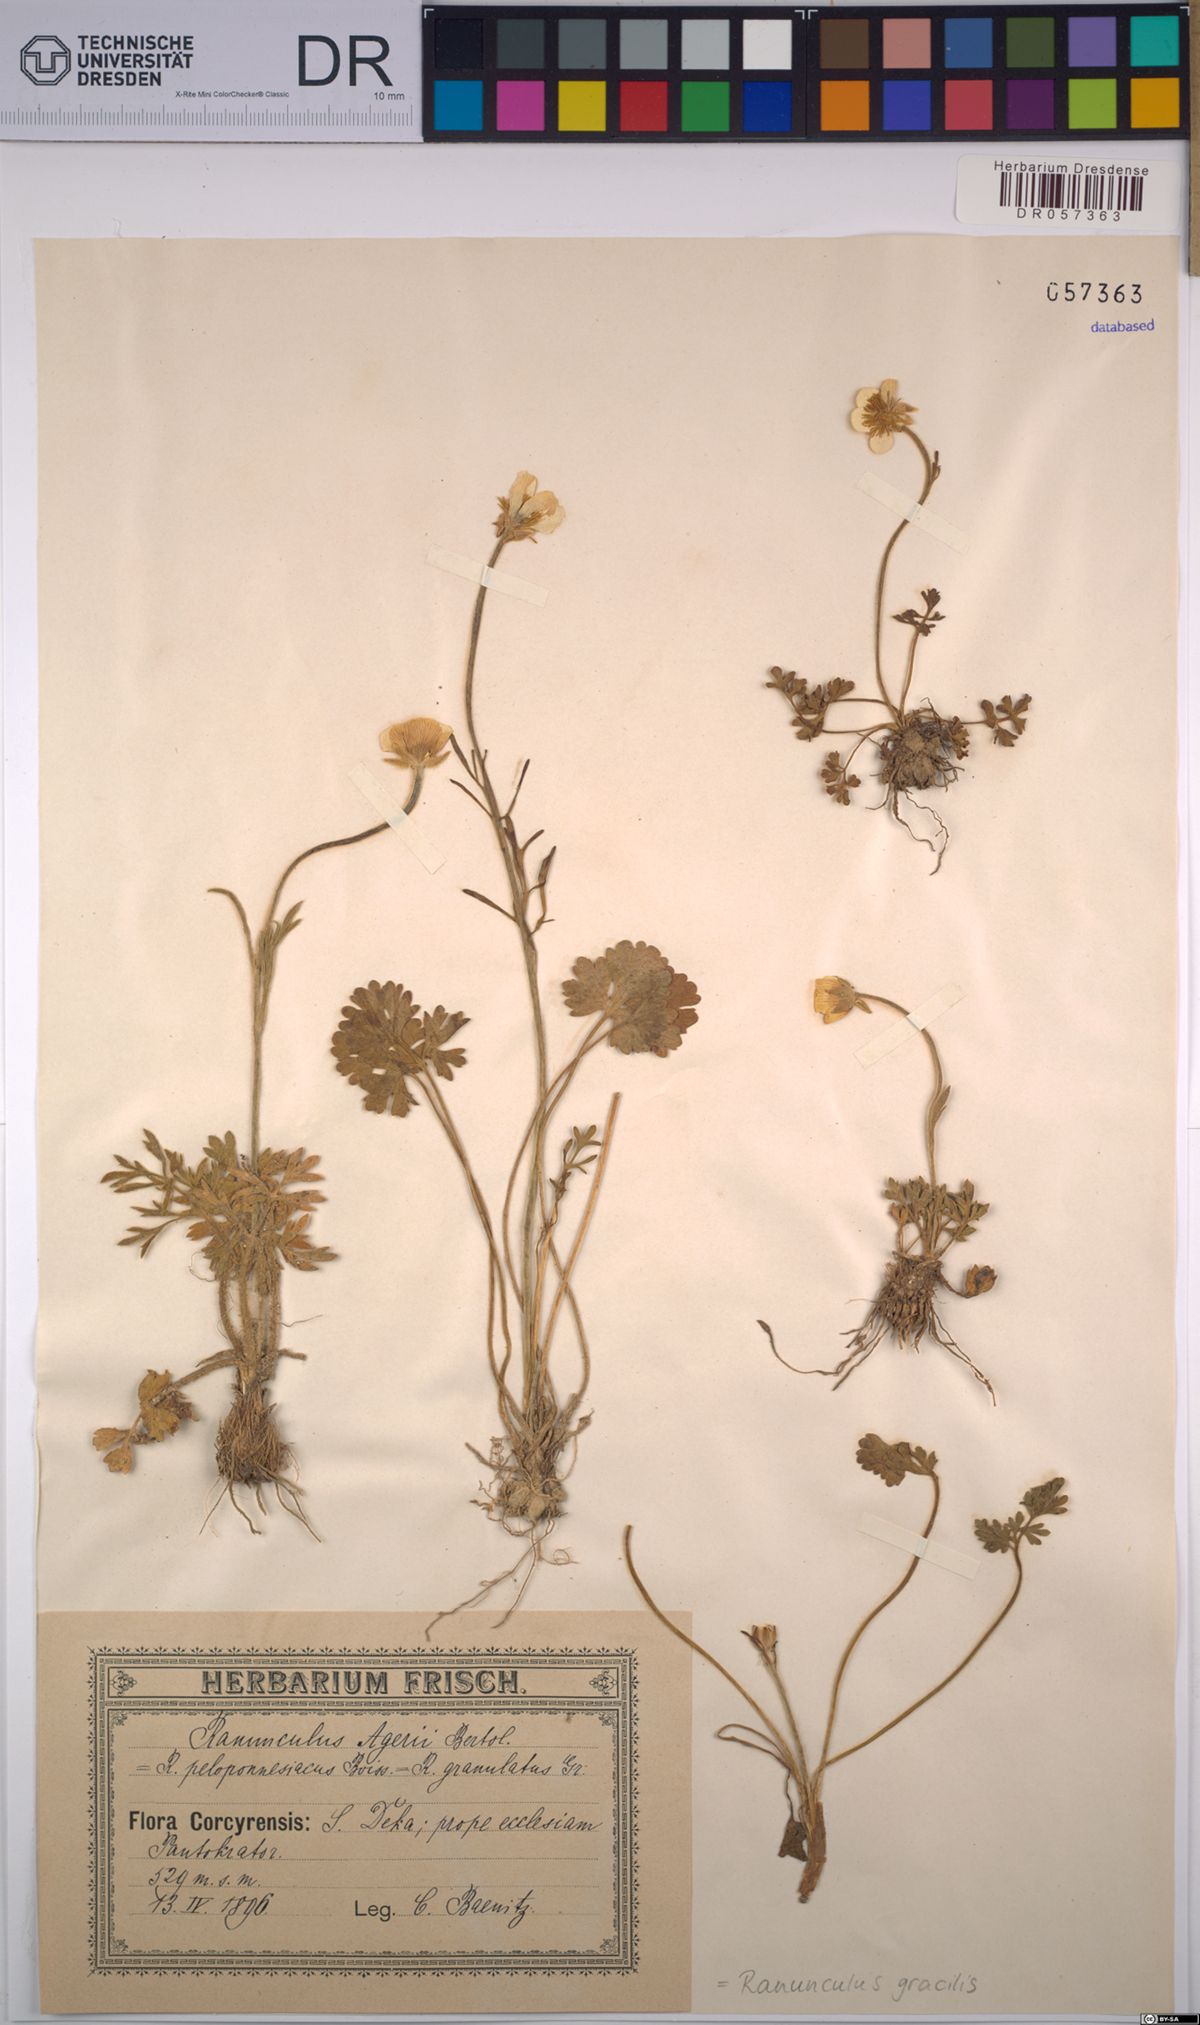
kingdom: Plantae
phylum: Tracheophyta
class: Magnoliopsida
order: Ranunculales
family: Ranunculaceae
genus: Ranunculus
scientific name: Ranunculus gracilis
